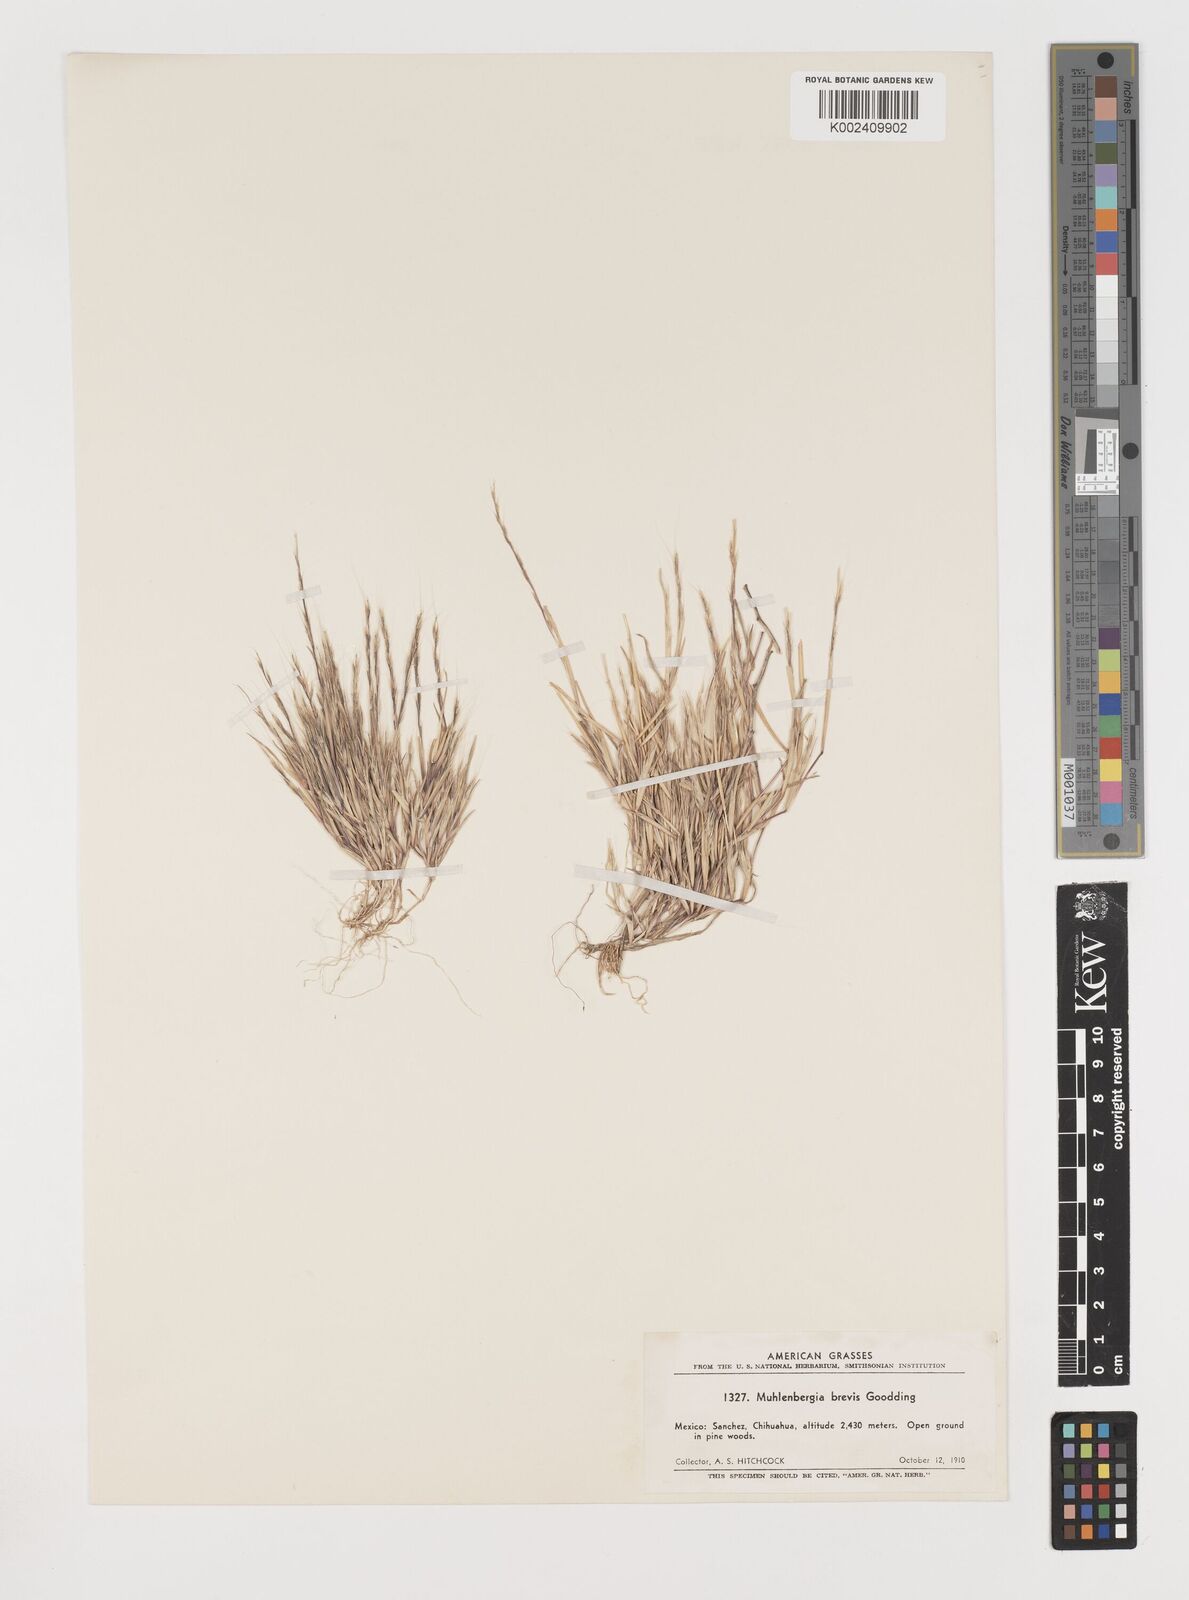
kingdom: Plantae
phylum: Tracheophyta
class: Liliopsida
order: Poales
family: Poaceae
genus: Muhlenbergia
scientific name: Muhlenbergia brevis
